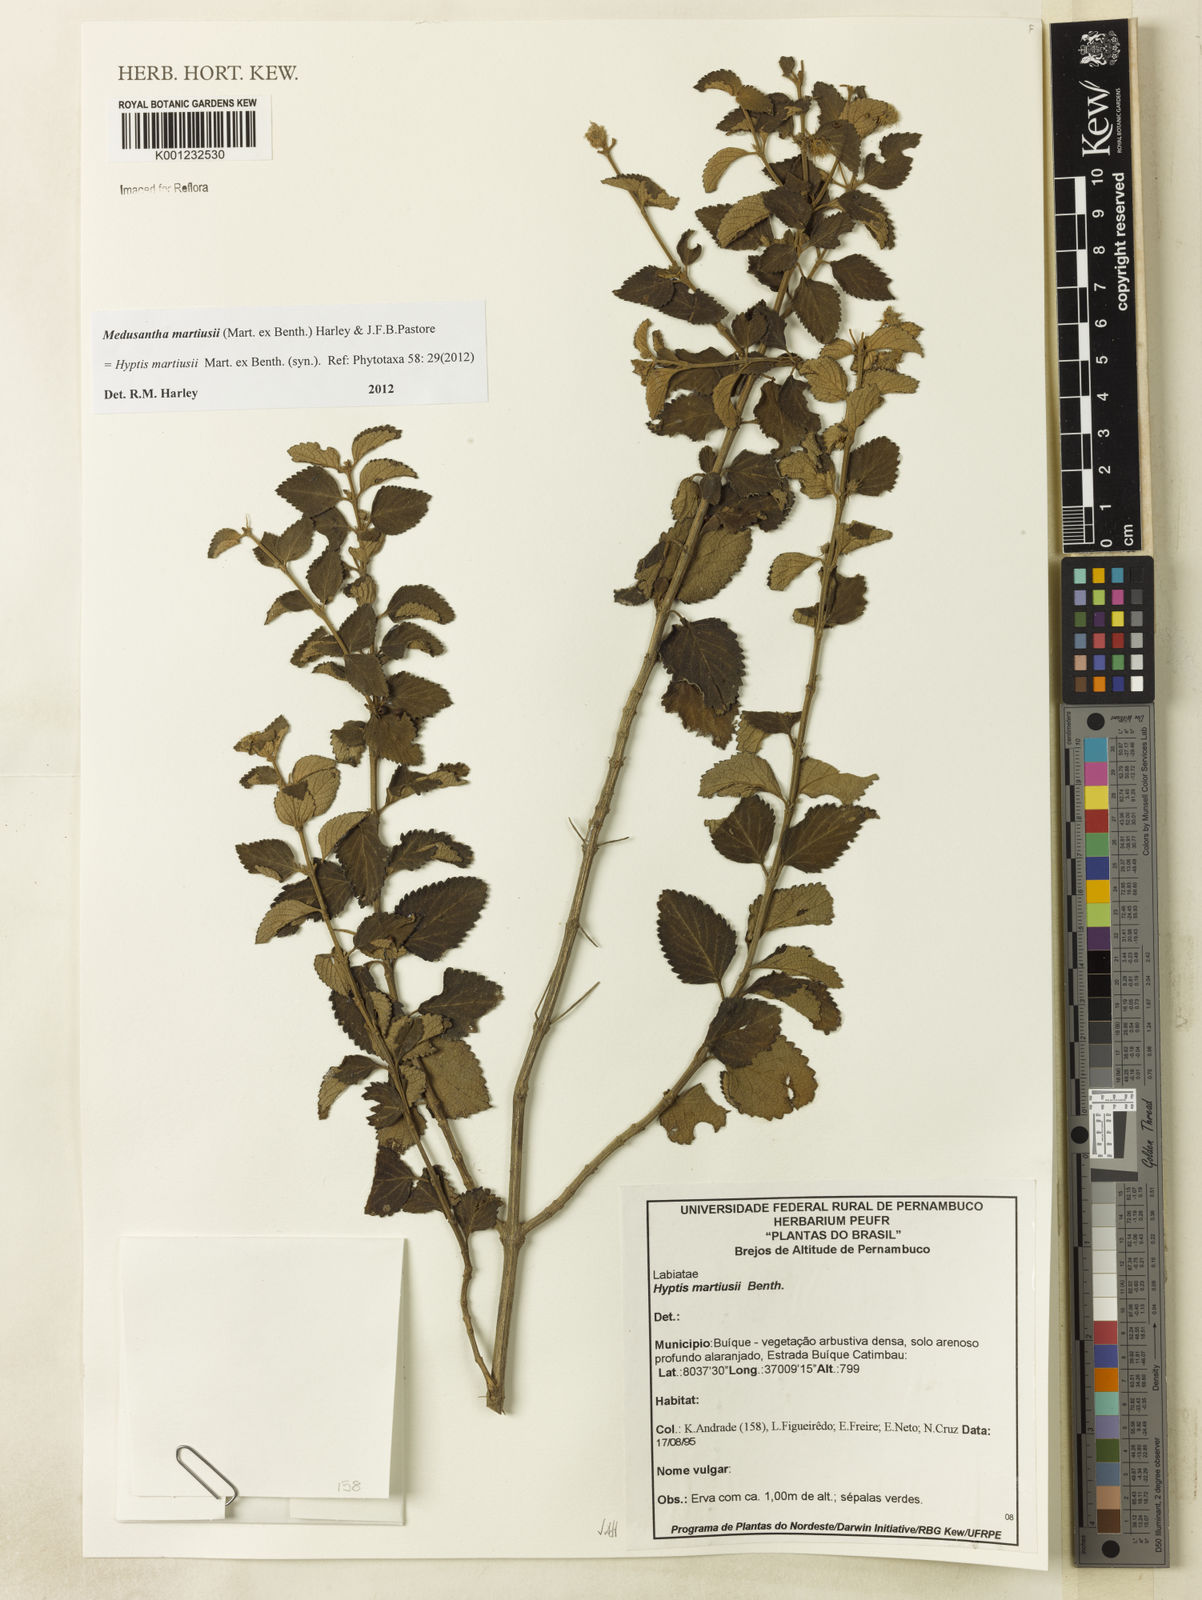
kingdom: Plantae
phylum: Tracheophyta
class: Magnoliopsida
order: Lamiales
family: Lamiaceae
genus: Medusantha
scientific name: Medusantha martiusii
